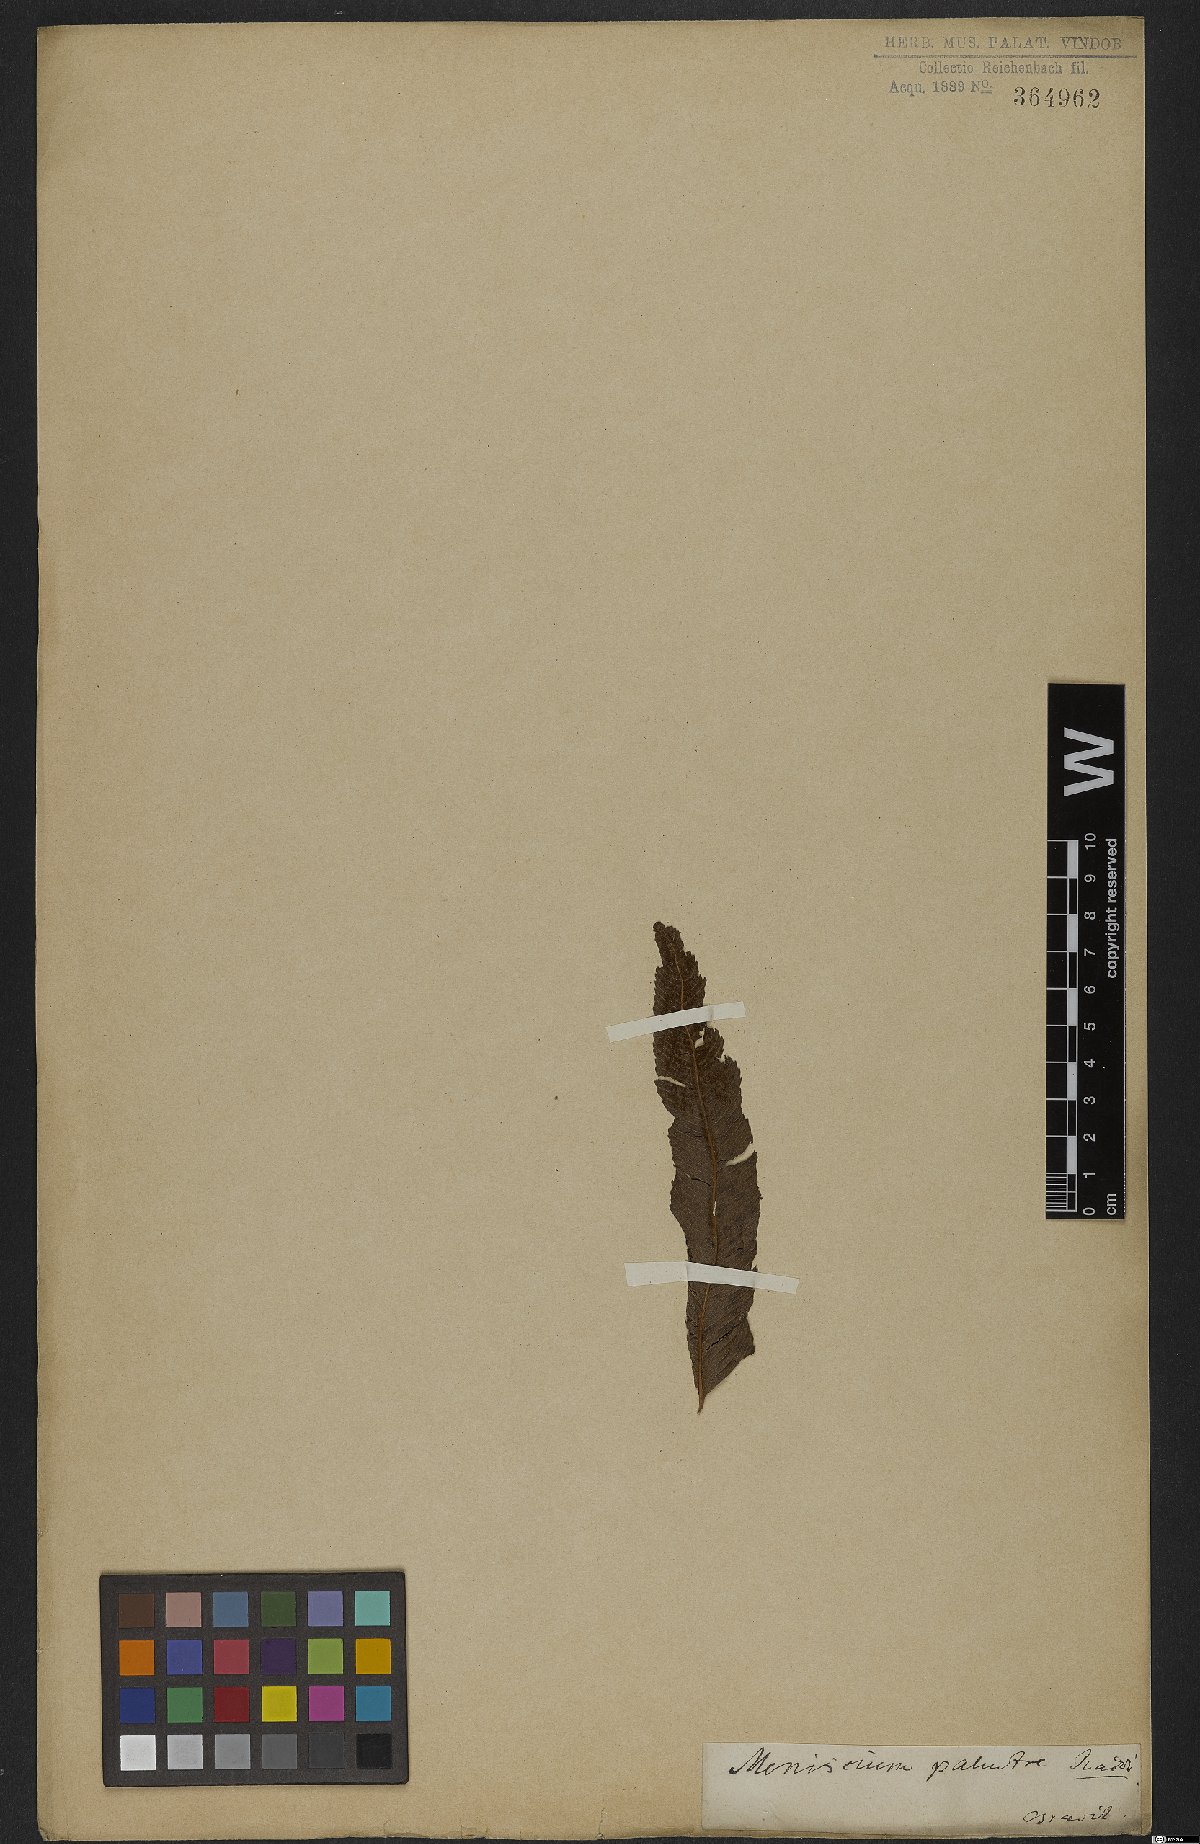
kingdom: Plantae
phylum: Tracheophyta
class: Polypodiopsida
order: Polypodiales
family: Thelypteridaceae
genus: Meniscium
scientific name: Meniscium serratum
